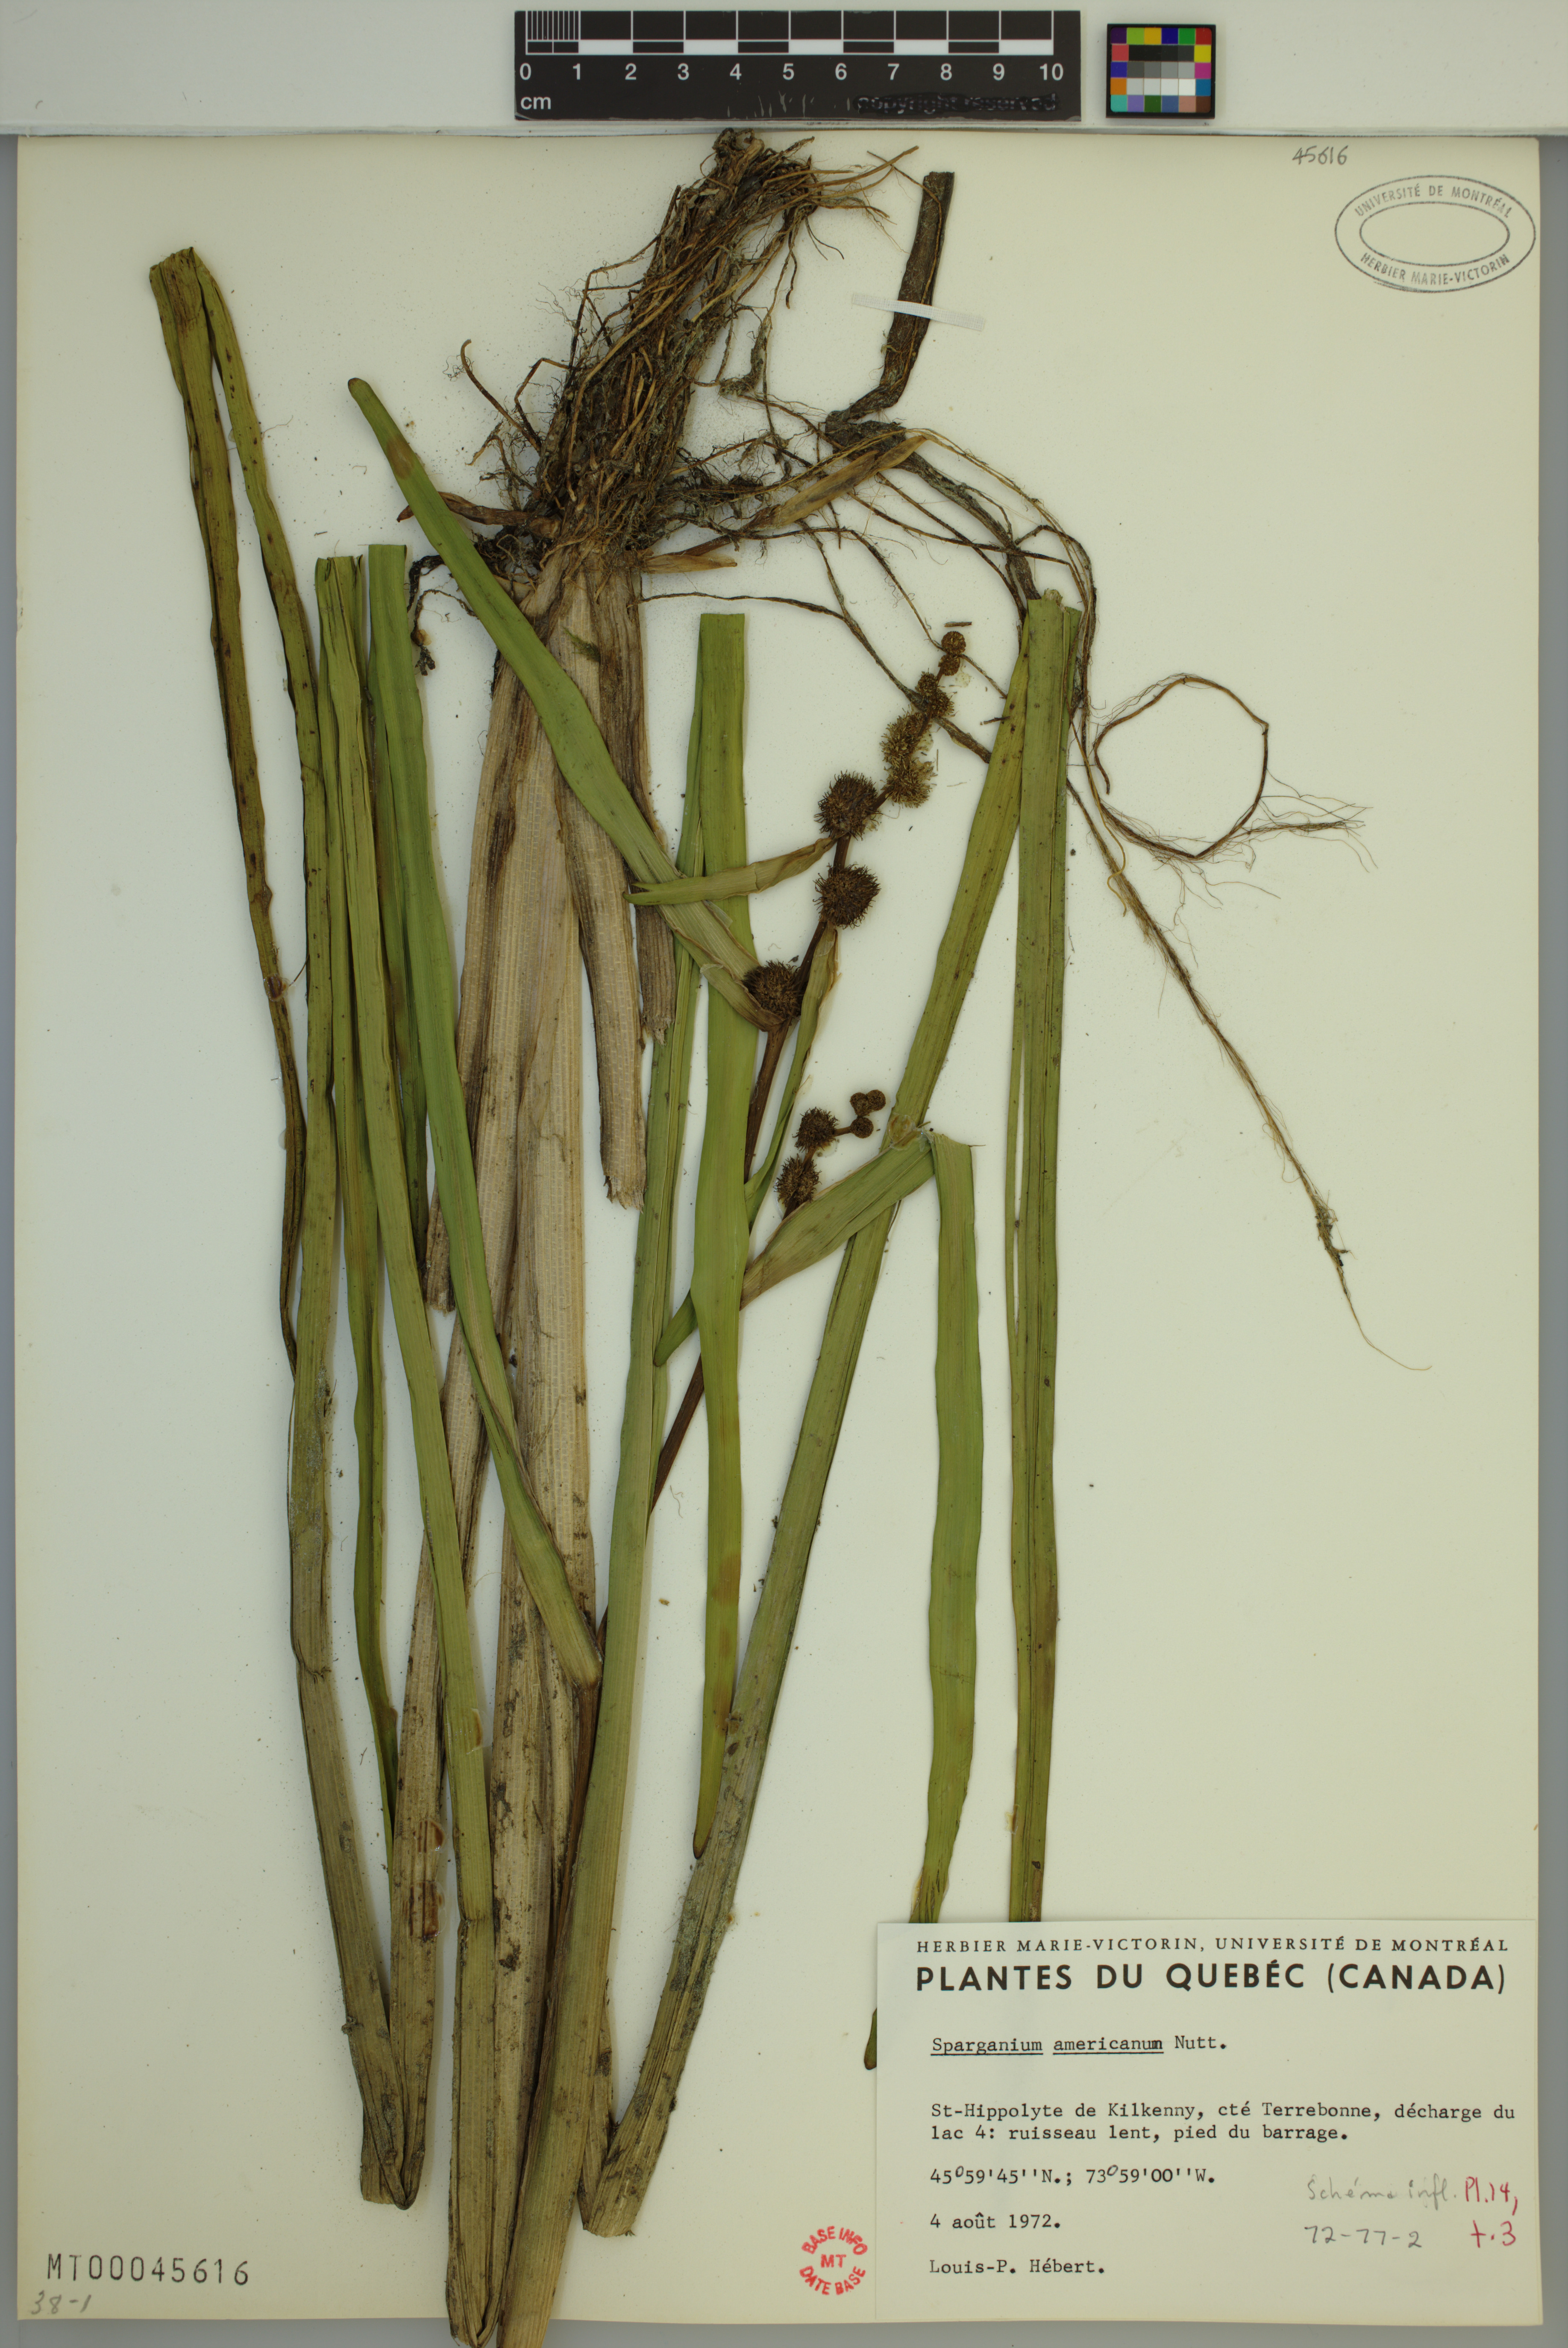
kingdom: Plantae
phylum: Tracheophyta
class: Liliopsida
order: Poales
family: Typhaceae
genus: Sparganium
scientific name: Sparganium americanum
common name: American burreed
